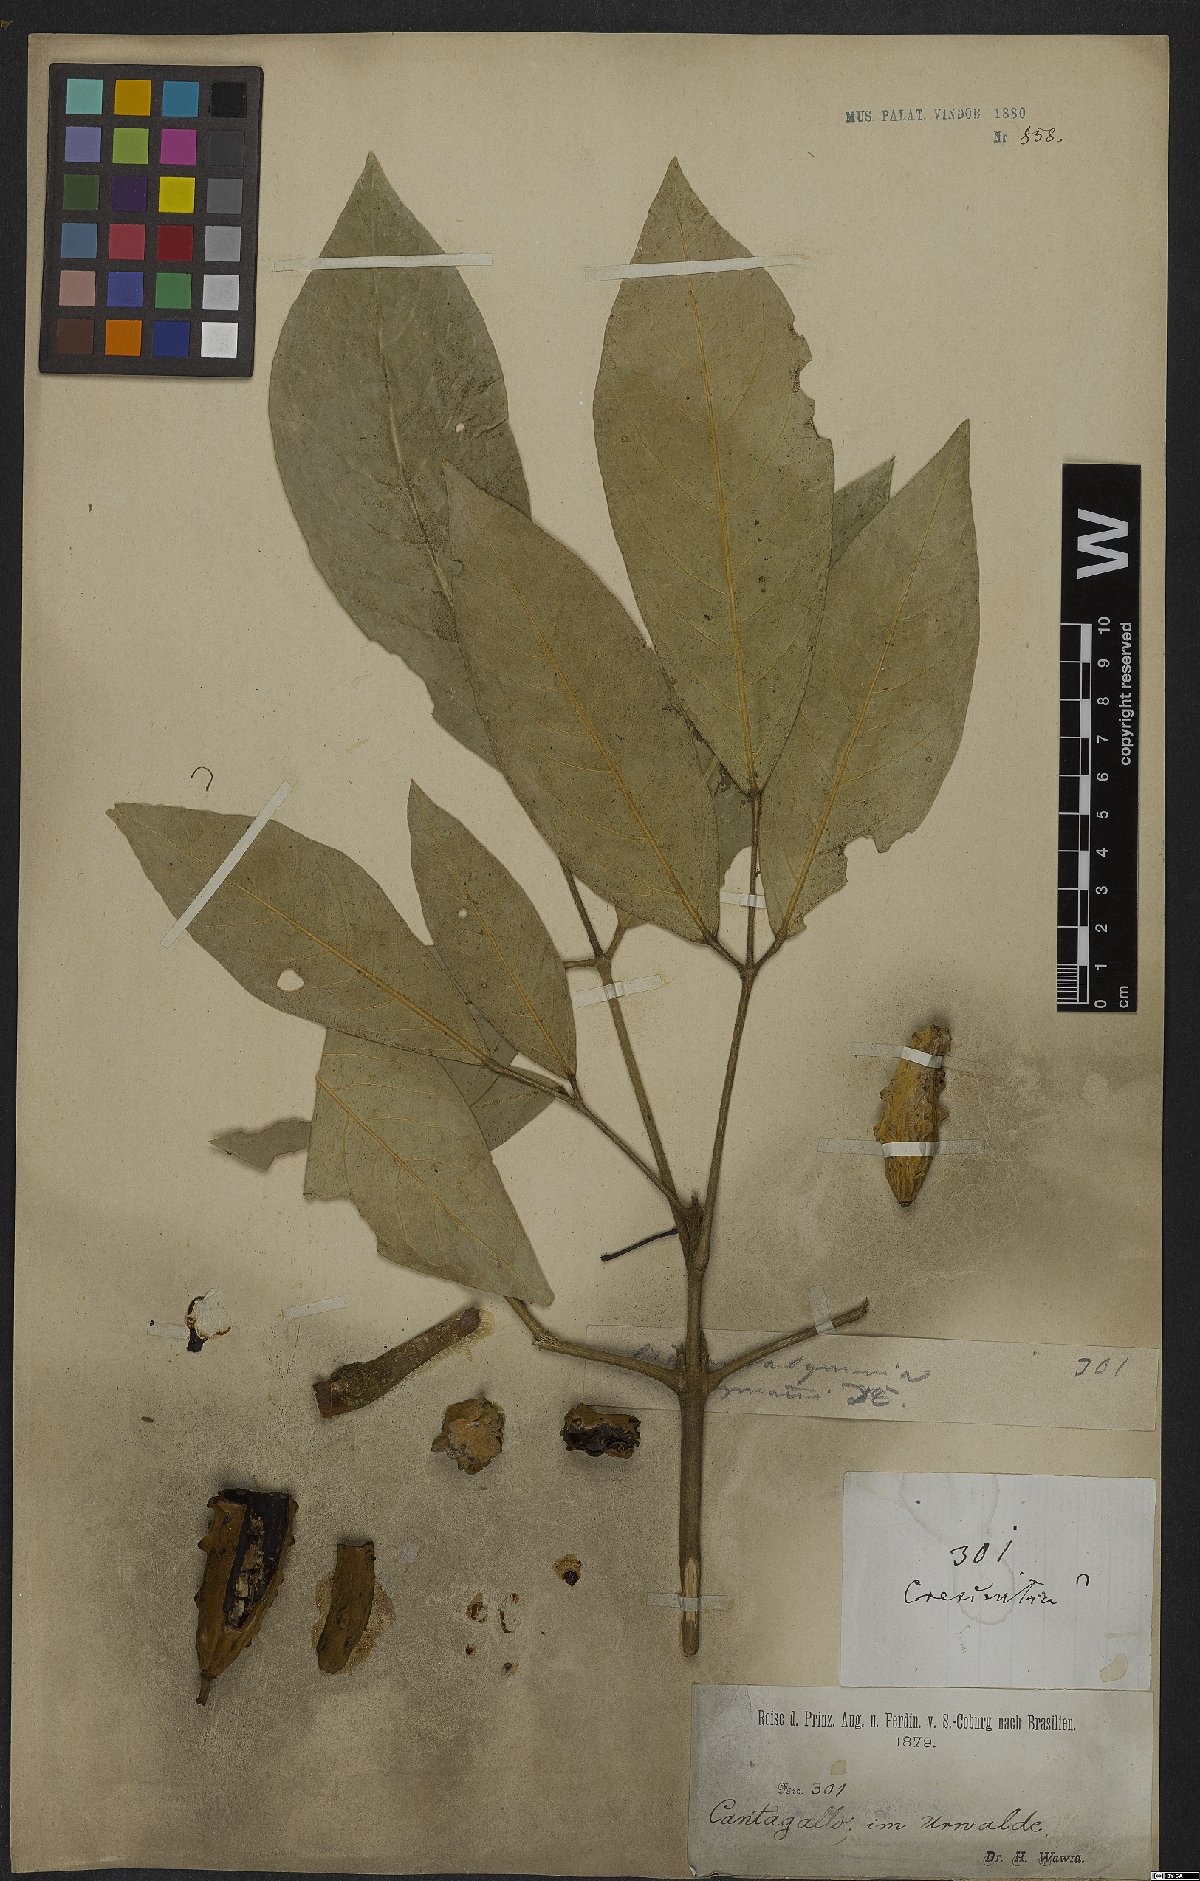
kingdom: Plantae
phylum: Tracheophyta
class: Magnoliopsida
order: Lamiales
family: Bignoniaceae
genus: Adenocalymma
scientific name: Adenocalymma coriaceum
